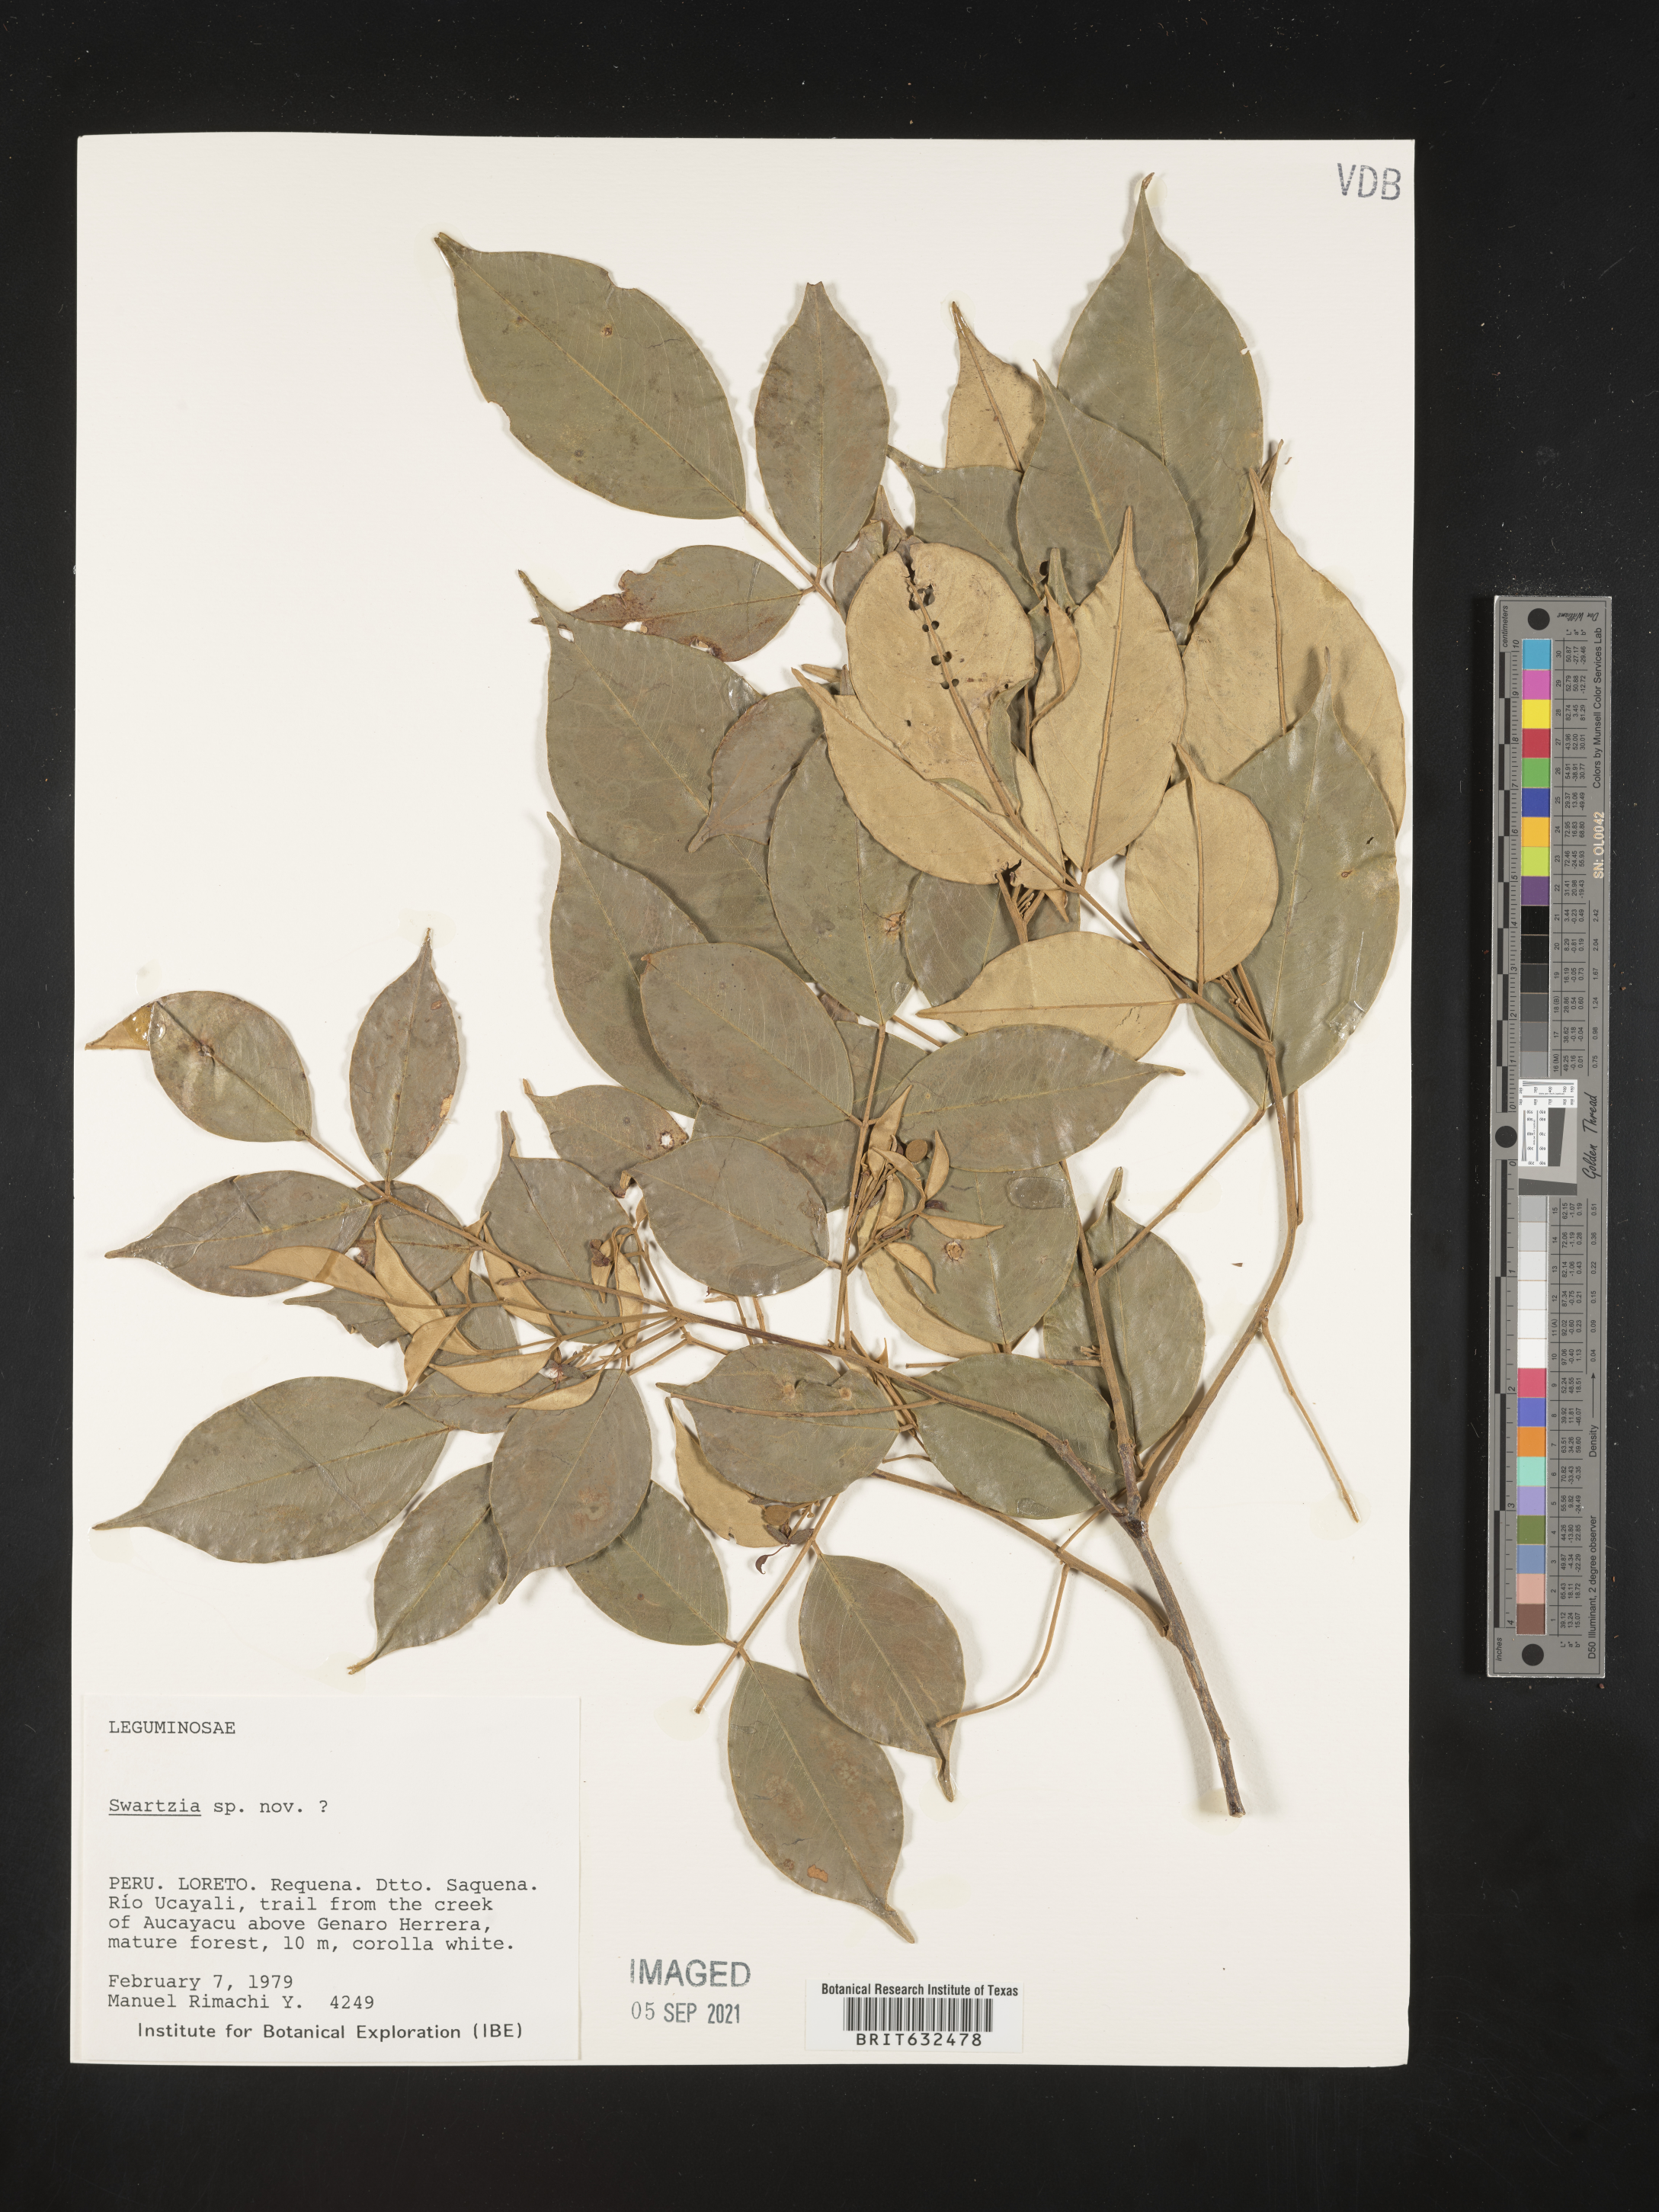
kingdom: Plantae
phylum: Tracheophyta
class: Magnoliopsida
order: Fabales
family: Fabaceae
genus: Swartzia
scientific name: Swartzia
